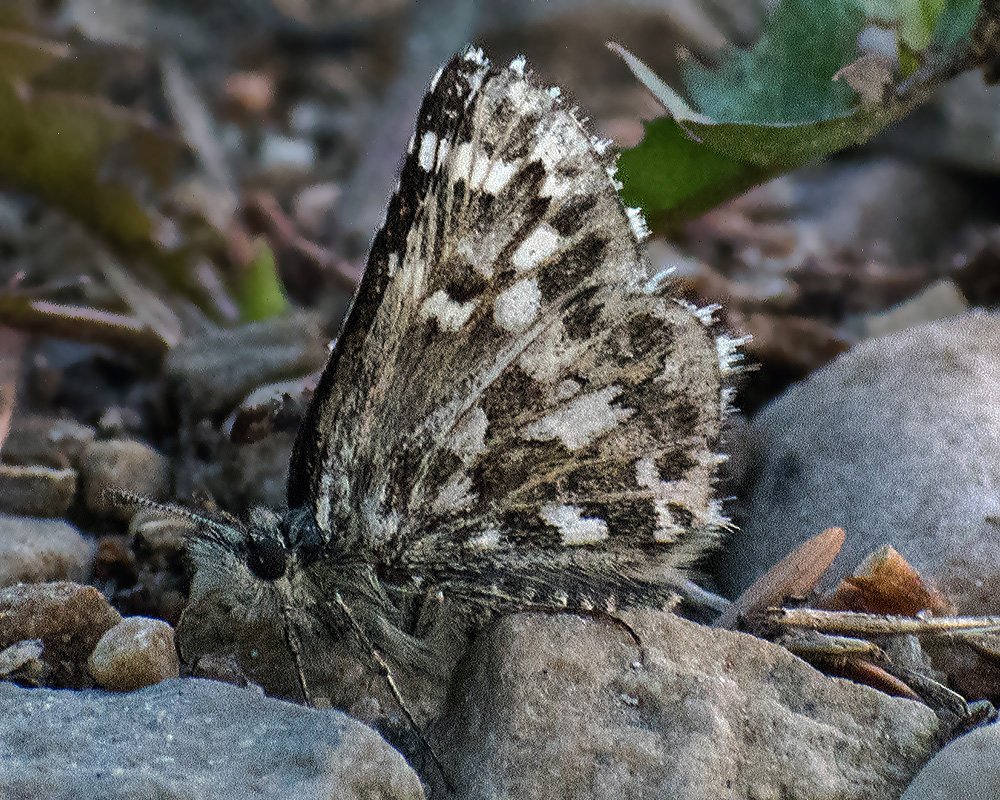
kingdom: Animalia
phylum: Arthropoda
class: Insecta
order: Lepidoptera
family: Hesperiidae
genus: Pyrgus
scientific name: Pyrgus centaureae
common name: Grizzled Skipper
